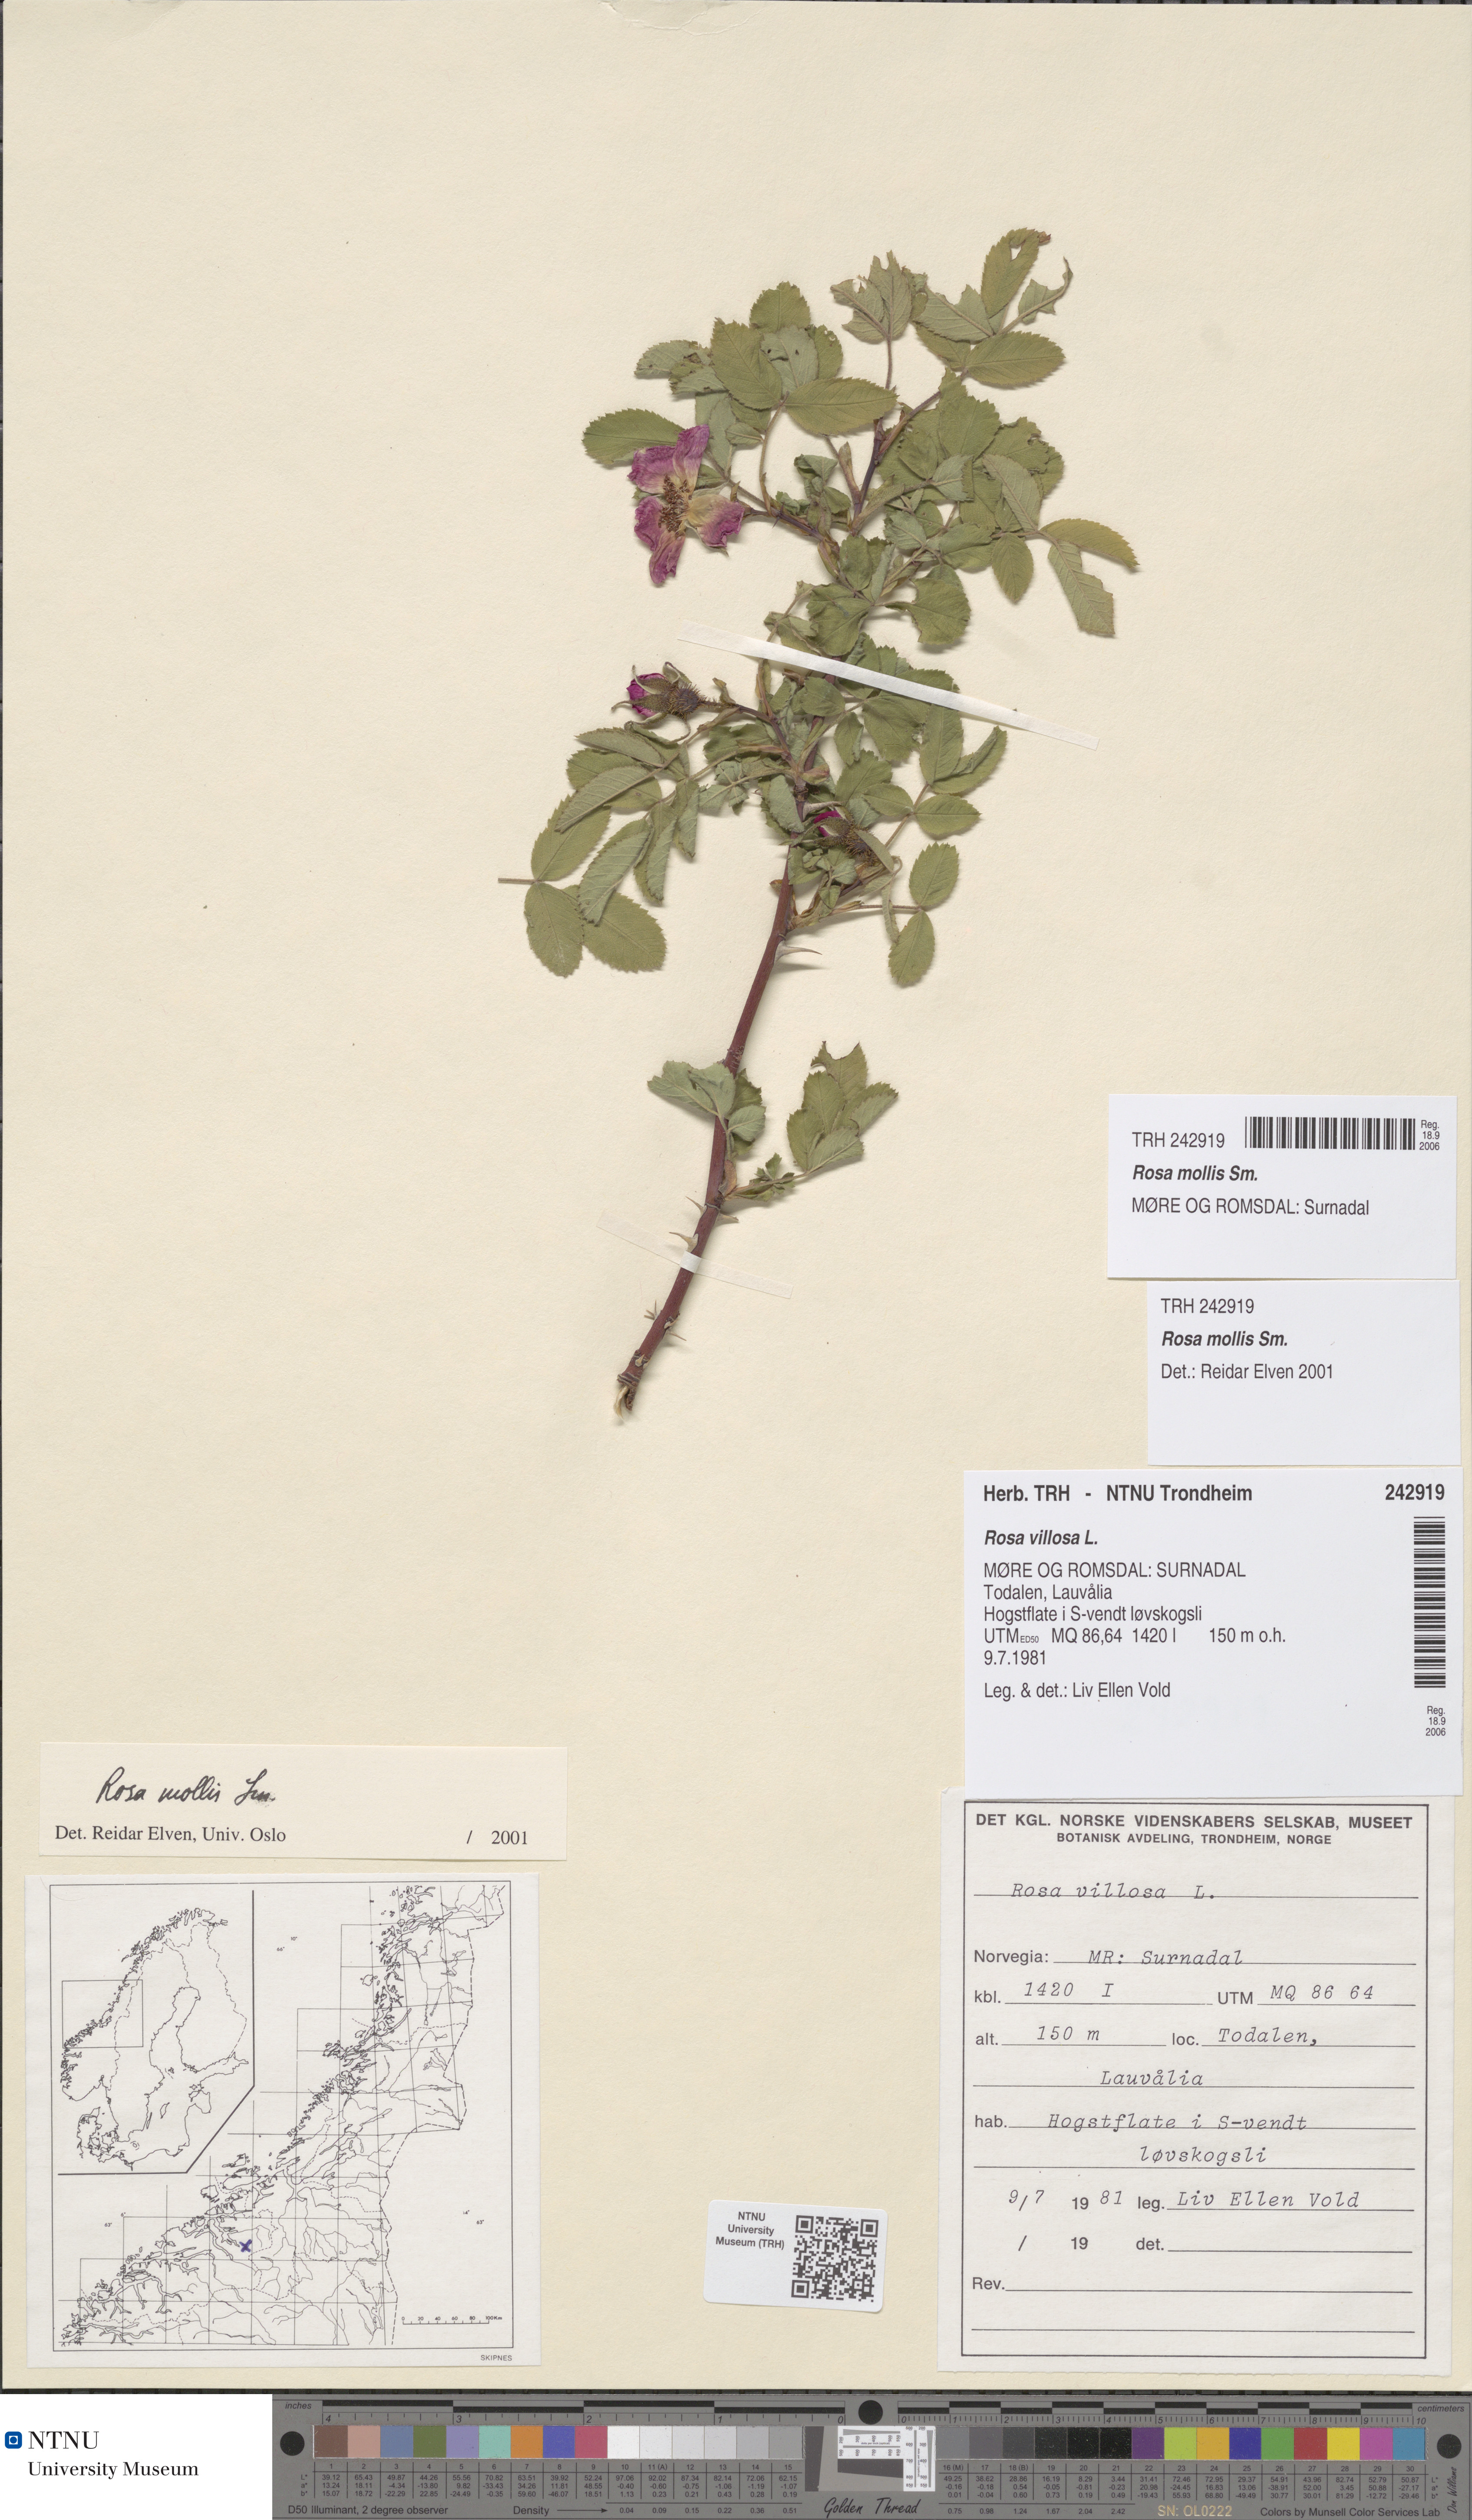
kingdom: Plantae
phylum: Tracheophyta
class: Magnoliopsida
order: Rosales
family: Rosaceae
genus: Rosa
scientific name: Rosa mollis
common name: Rose
